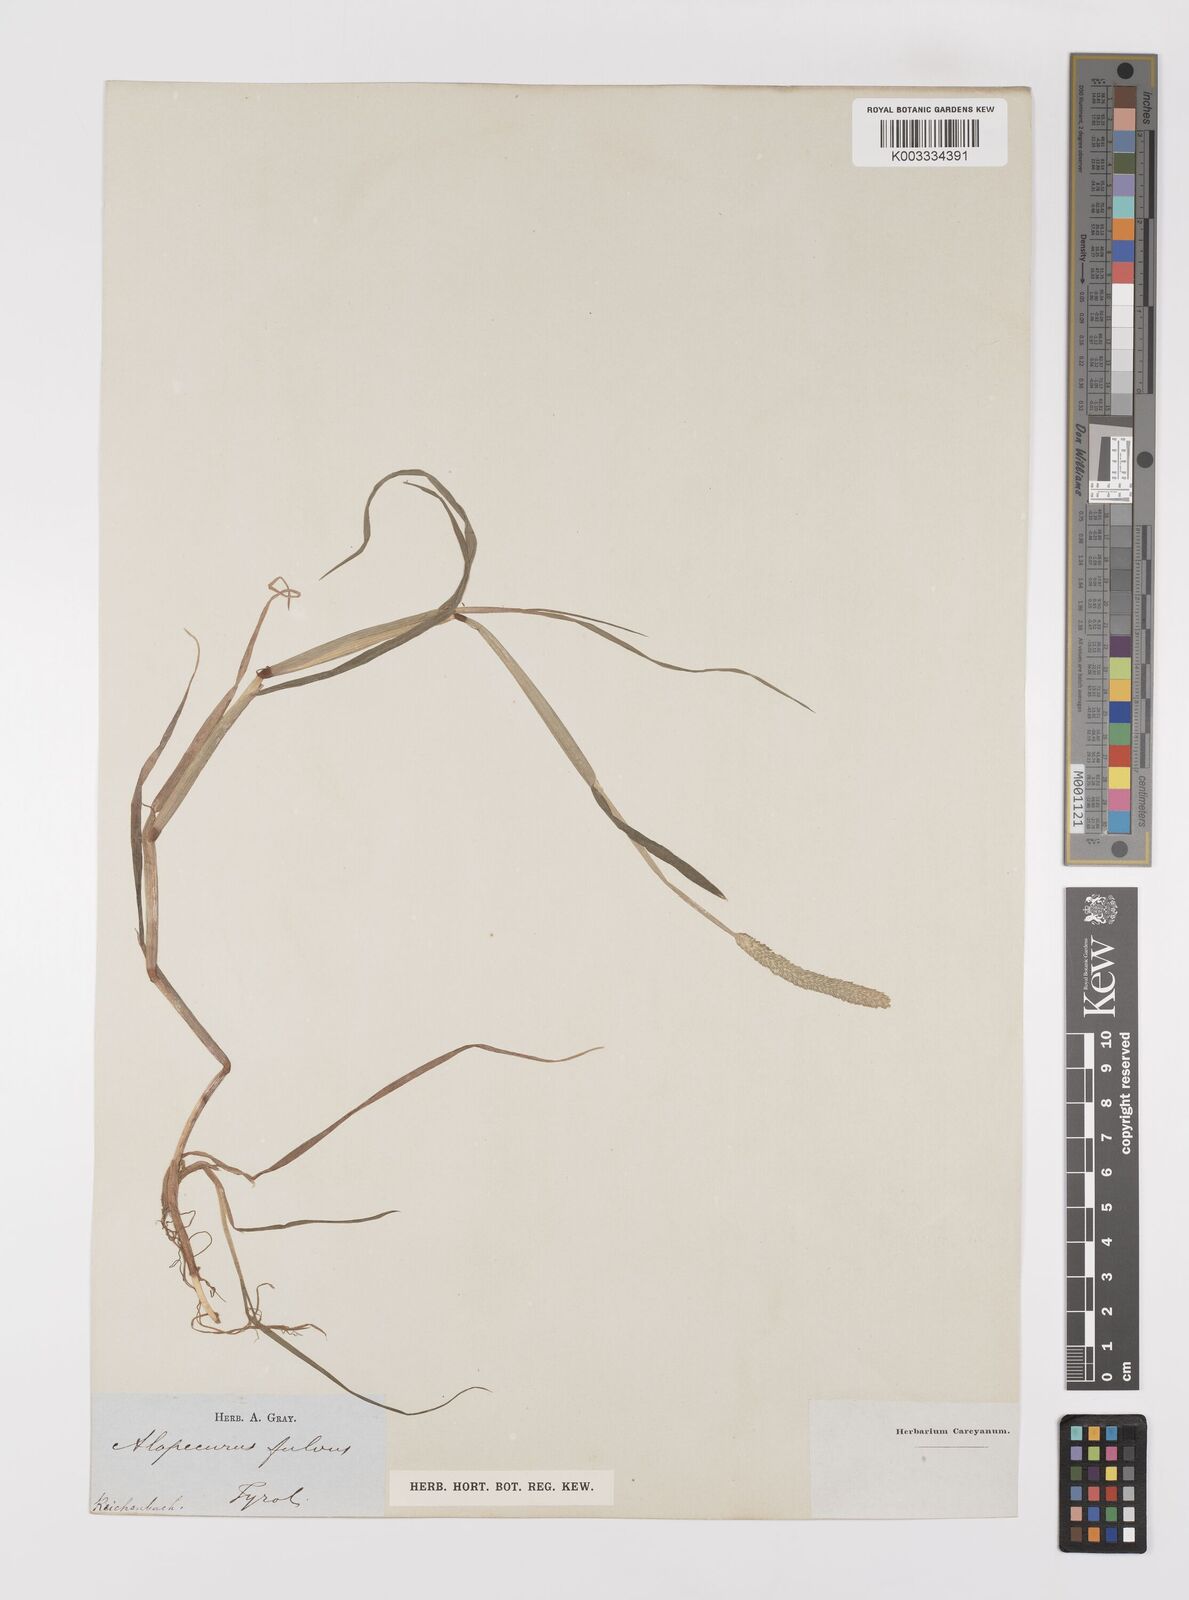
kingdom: Plantae
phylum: Tracheophyta
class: Liliopsida
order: Poales
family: Poaceae
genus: Alopecurus
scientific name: Alopecurus aequalis
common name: Orange foxtail
